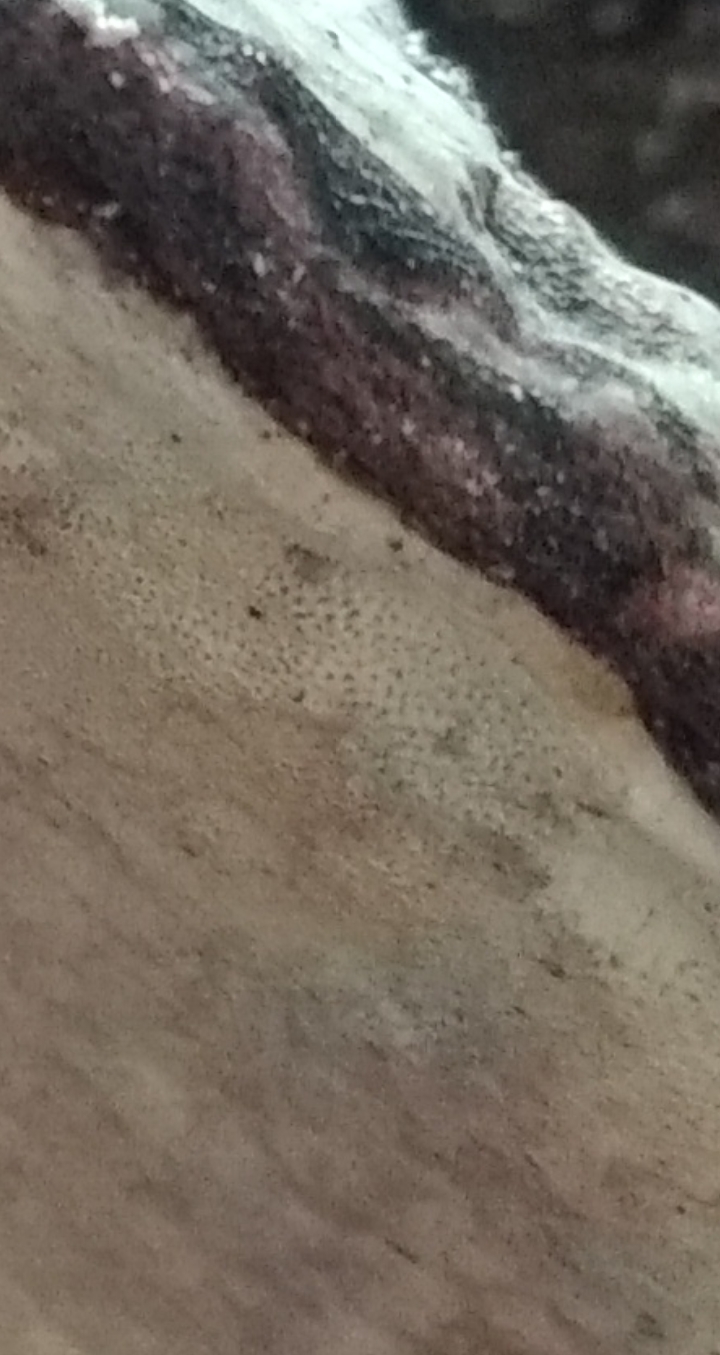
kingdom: Fungi
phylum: Basidiomycota
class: Agaricomycetes
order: Polyporales
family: Polyporaceae
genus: Fomes
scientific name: Fomes fomentarius
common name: tøndersvamp
